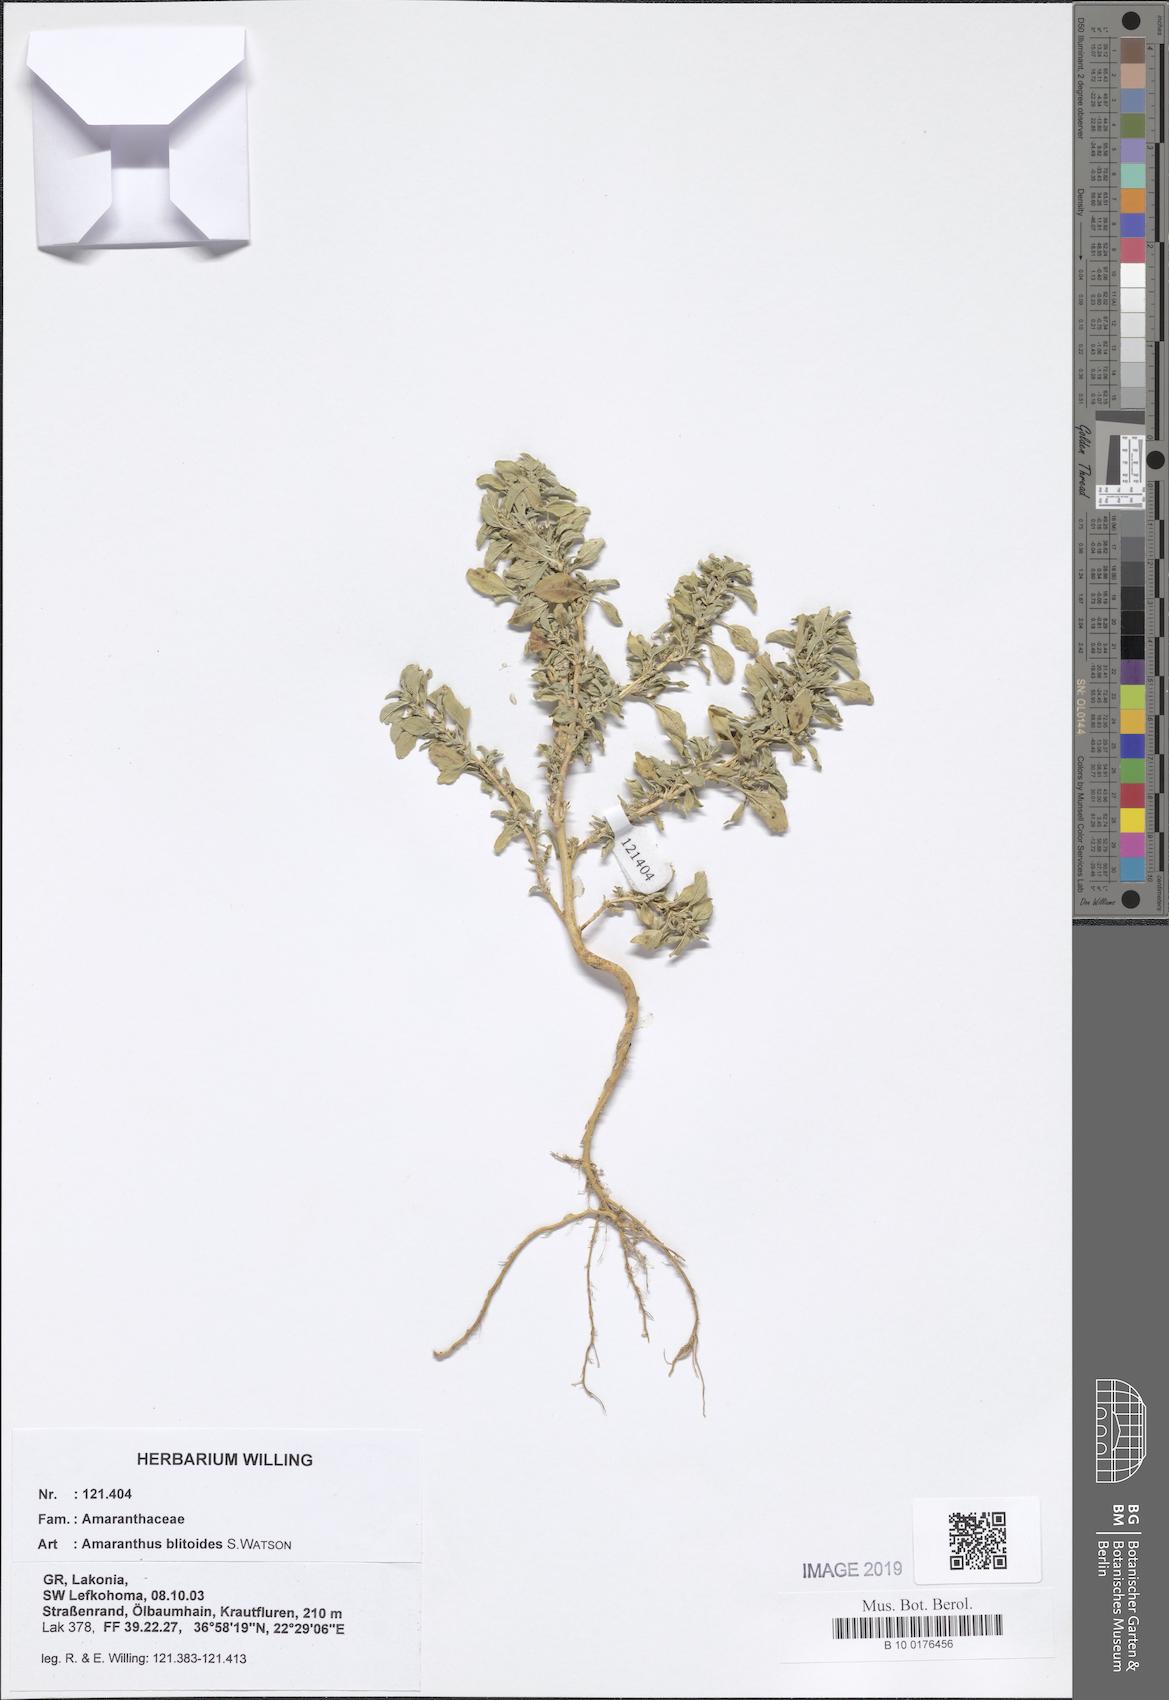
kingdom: Plantae
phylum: Tracheophyta
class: Magnoliopsida
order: Caryophyllales
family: Amaranthaceae
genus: Amaranthus
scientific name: Amaranthus blitoides
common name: Prostrate pigweed
